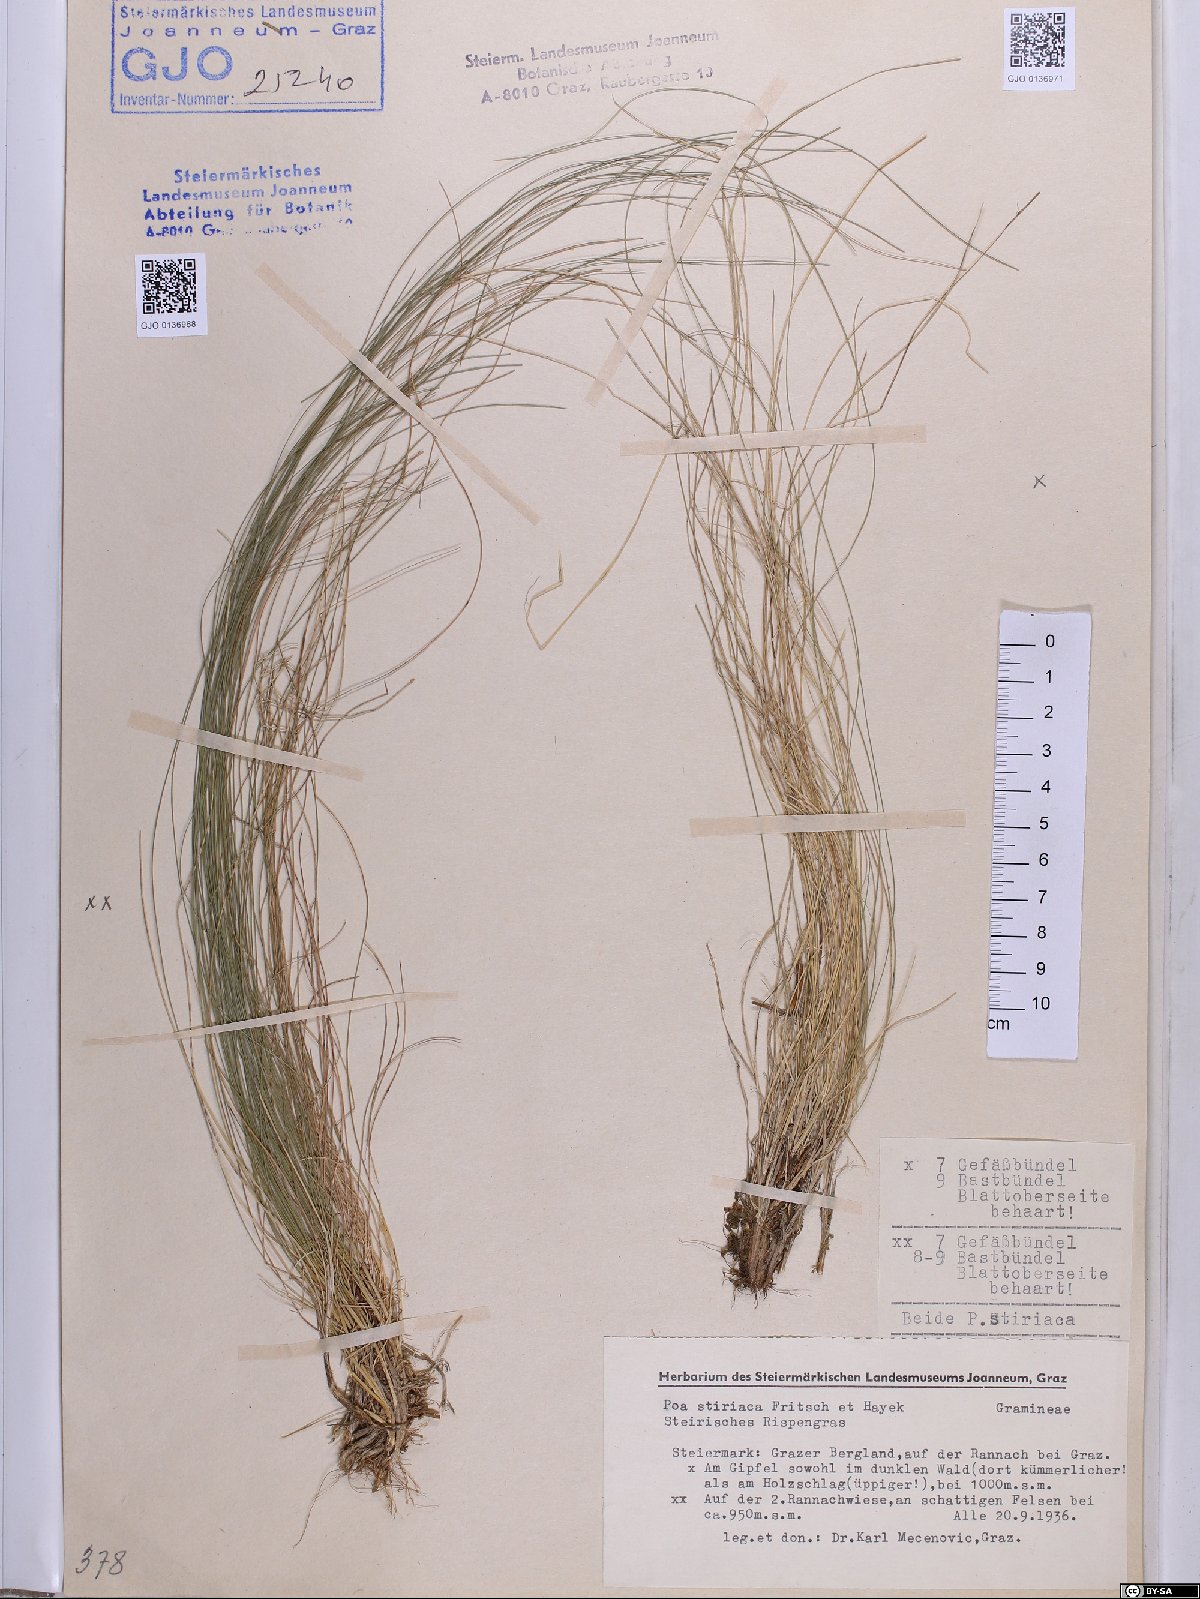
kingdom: Plantae
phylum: Tracheophyta
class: Liliopsida
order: Poales
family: Poaceae
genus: Poa
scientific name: Poa stiriaca
